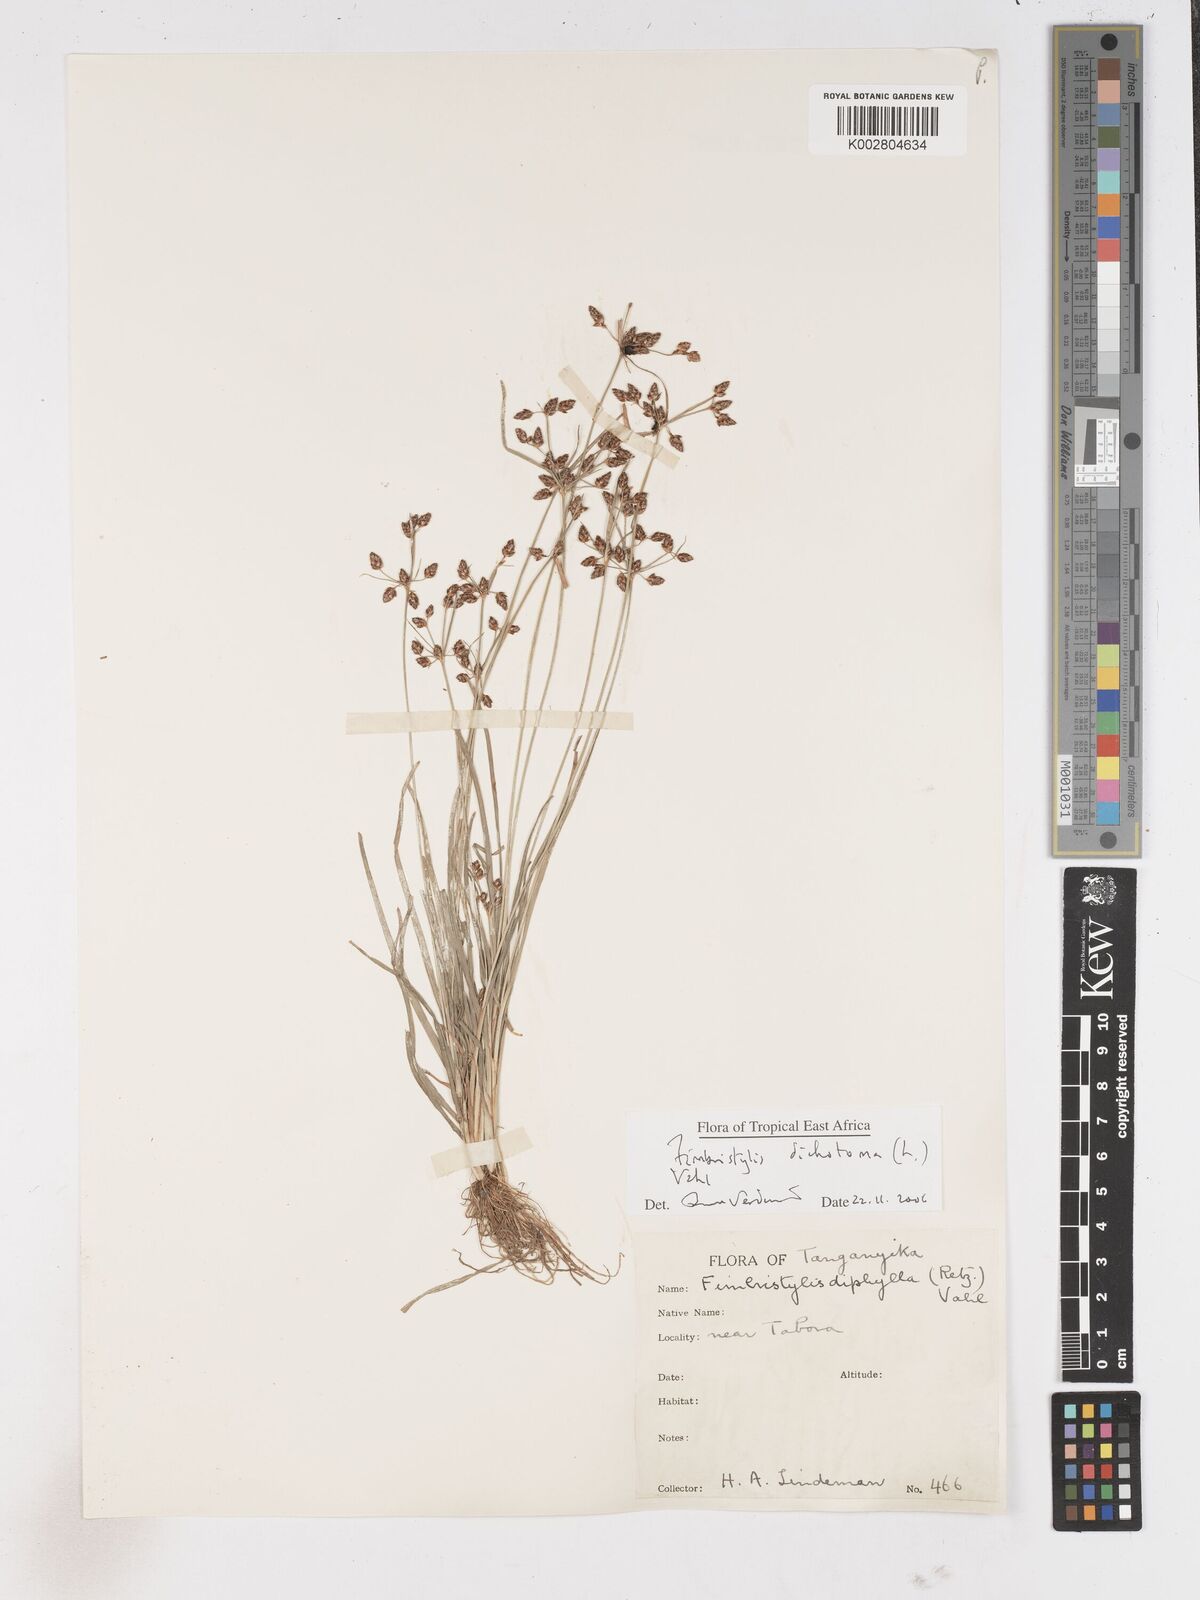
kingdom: Plantae
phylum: Tracheophyta
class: Liliopsida
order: Poales
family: Cyperaceae
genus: Fimbristylis
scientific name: Fimbristylis dichotoma
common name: Forked fimbry
